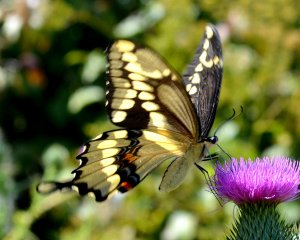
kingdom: Animalia
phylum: Arthropoda
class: Insecta
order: Lepidoptera
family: Papilionidae
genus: Papilio
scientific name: Papilio cresphontes
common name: Eastern Giant Swallowtail
